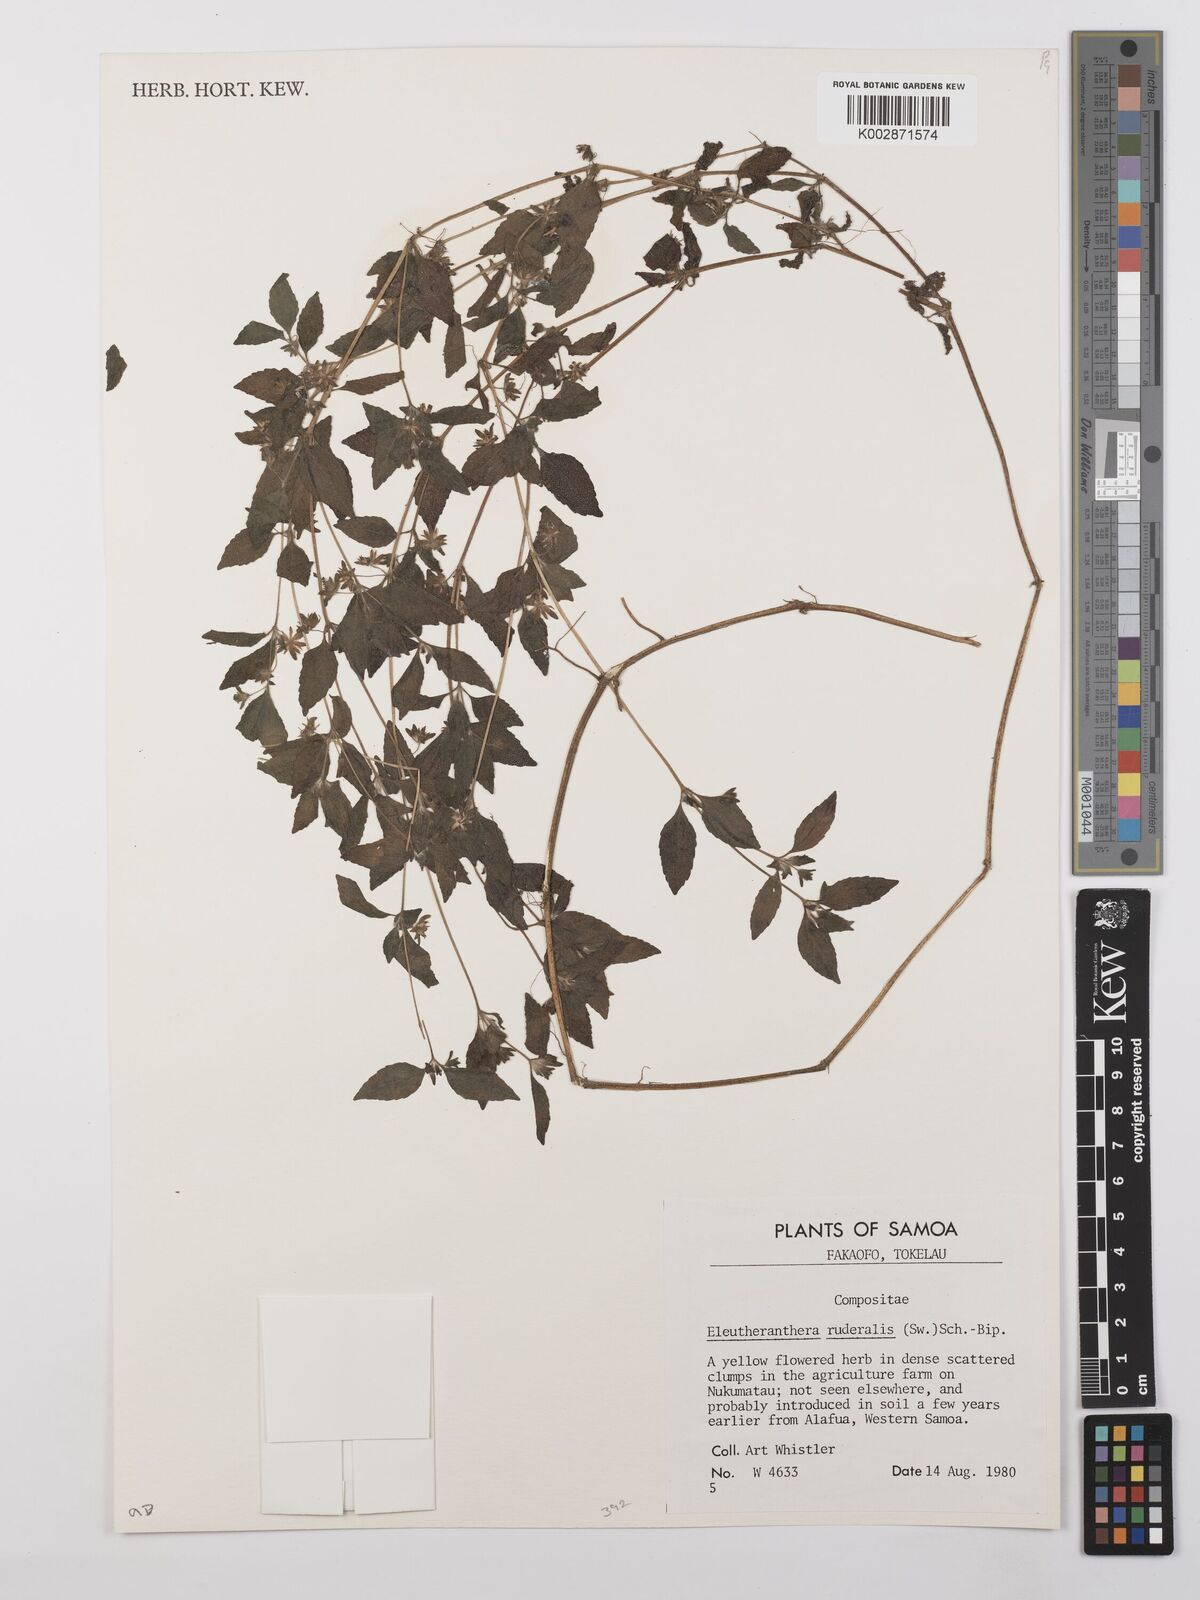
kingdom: Plantae
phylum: Tracheophyta
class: Magnoliopsida
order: Asterales
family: Asteraceae
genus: Eleutheranthera
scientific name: Eleutheranthera ruderalis
